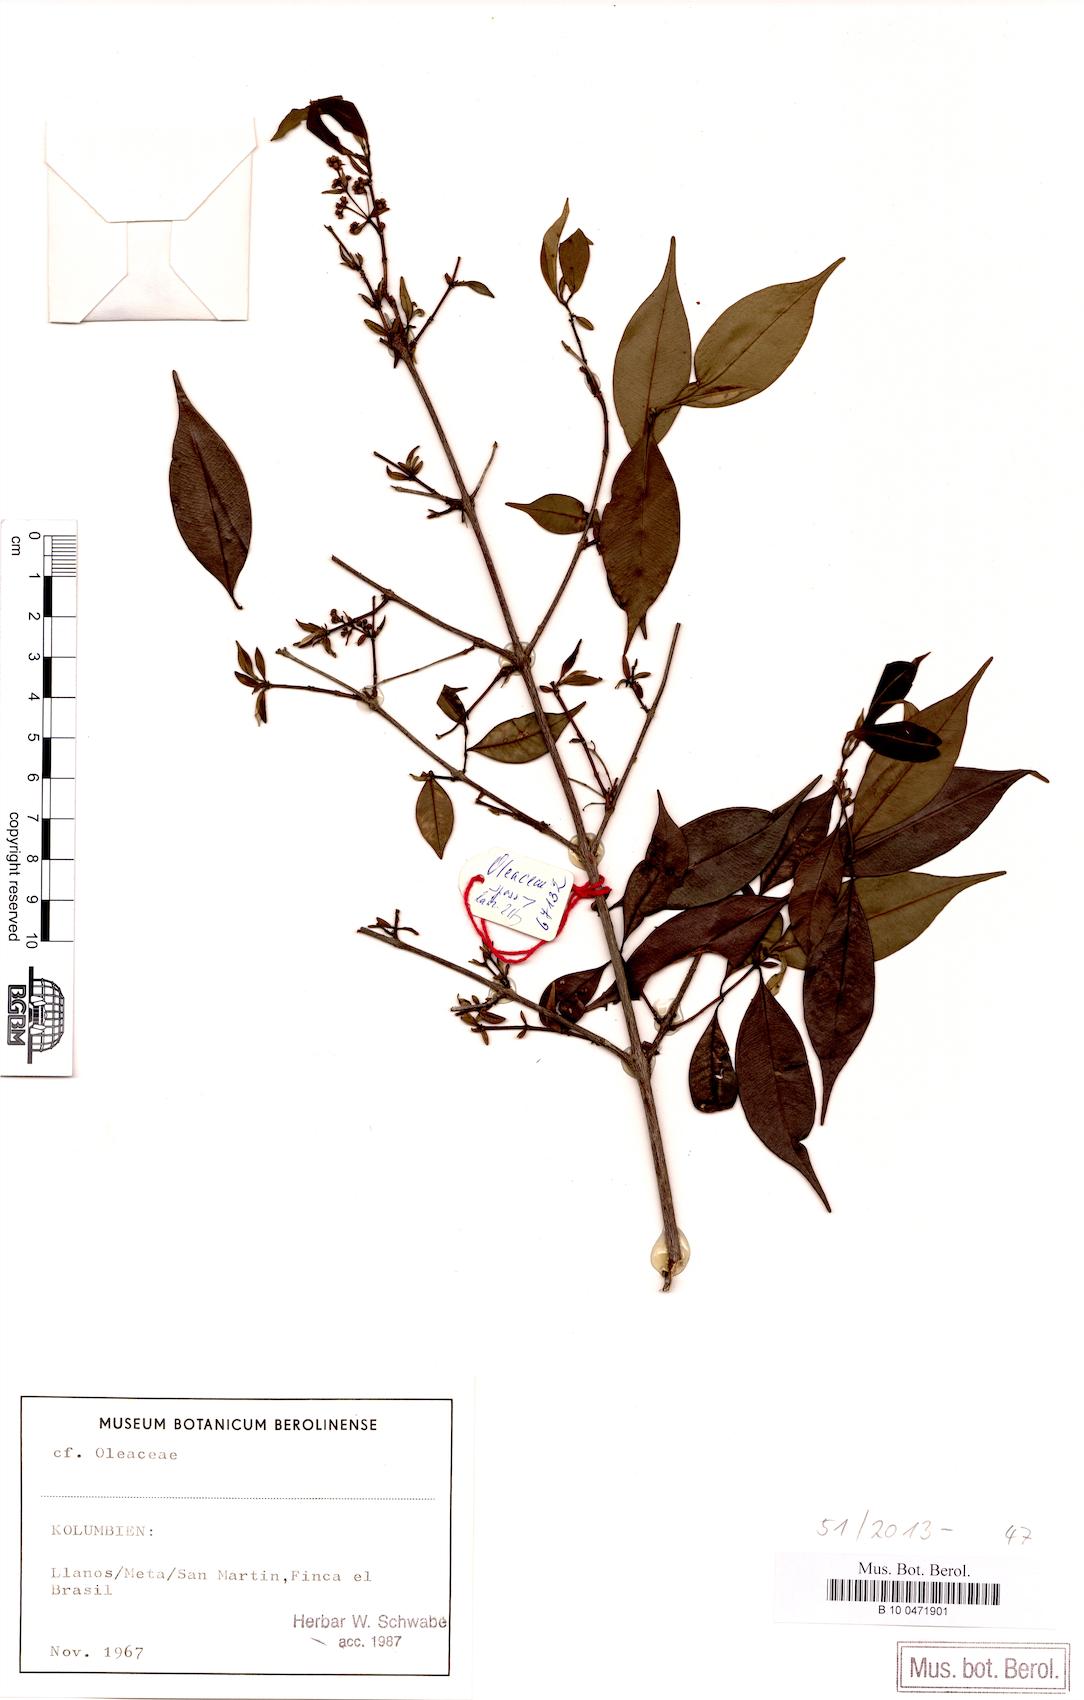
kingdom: Plantae
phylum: Tracheophyta
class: Magnoliopsida
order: Lamiales
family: Oleaceae
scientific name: Oleaceae
